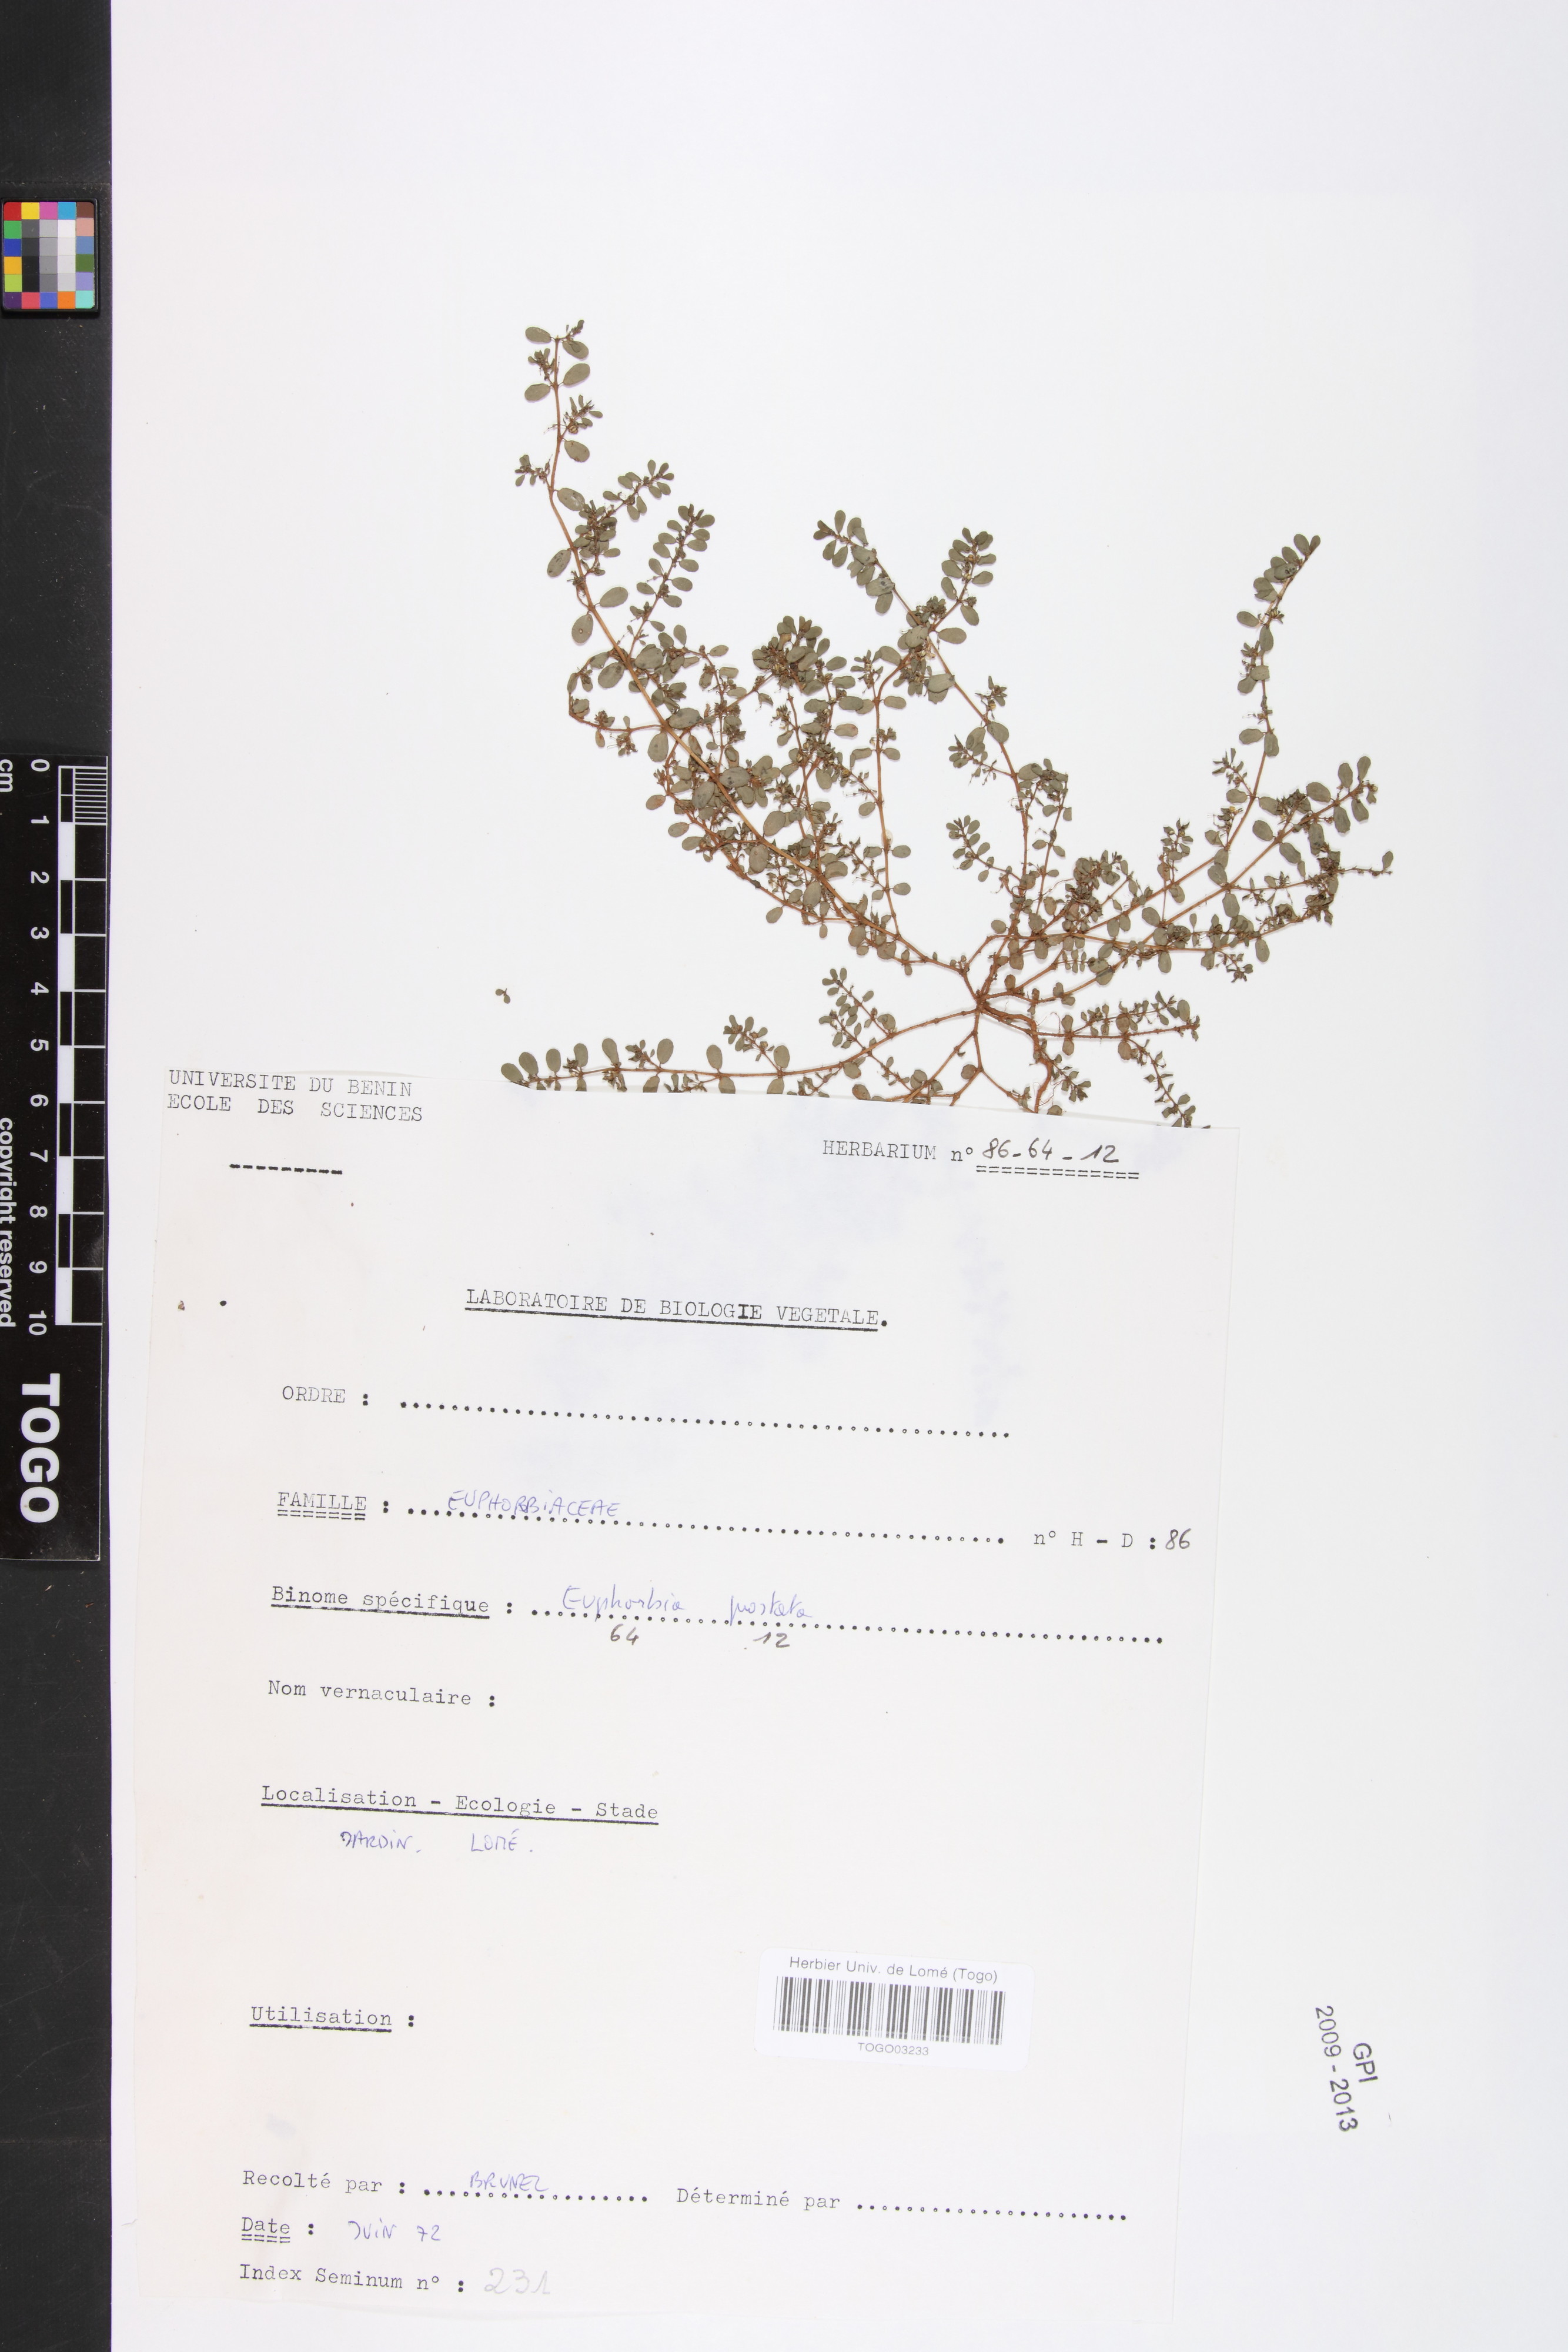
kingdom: Plantae
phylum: Tracheophyta
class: Magnoliopsida
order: Malpighiales
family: Euphorbiaceae
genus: Euphorbia
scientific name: Euphorbia prostrata
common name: Prostrate sandmat
